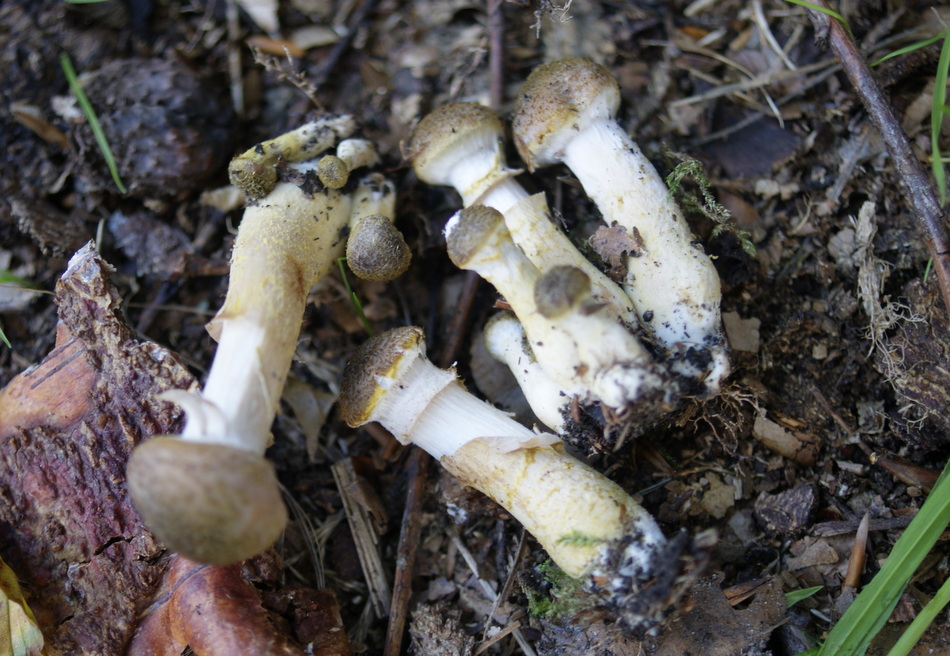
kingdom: Fungi
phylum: Basidiomycota
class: Agaricomycetes
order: Agaricales
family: Physalacriaceae
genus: Armillaria
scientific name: Armillaria lutea
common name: køllestokket honningsvamp
